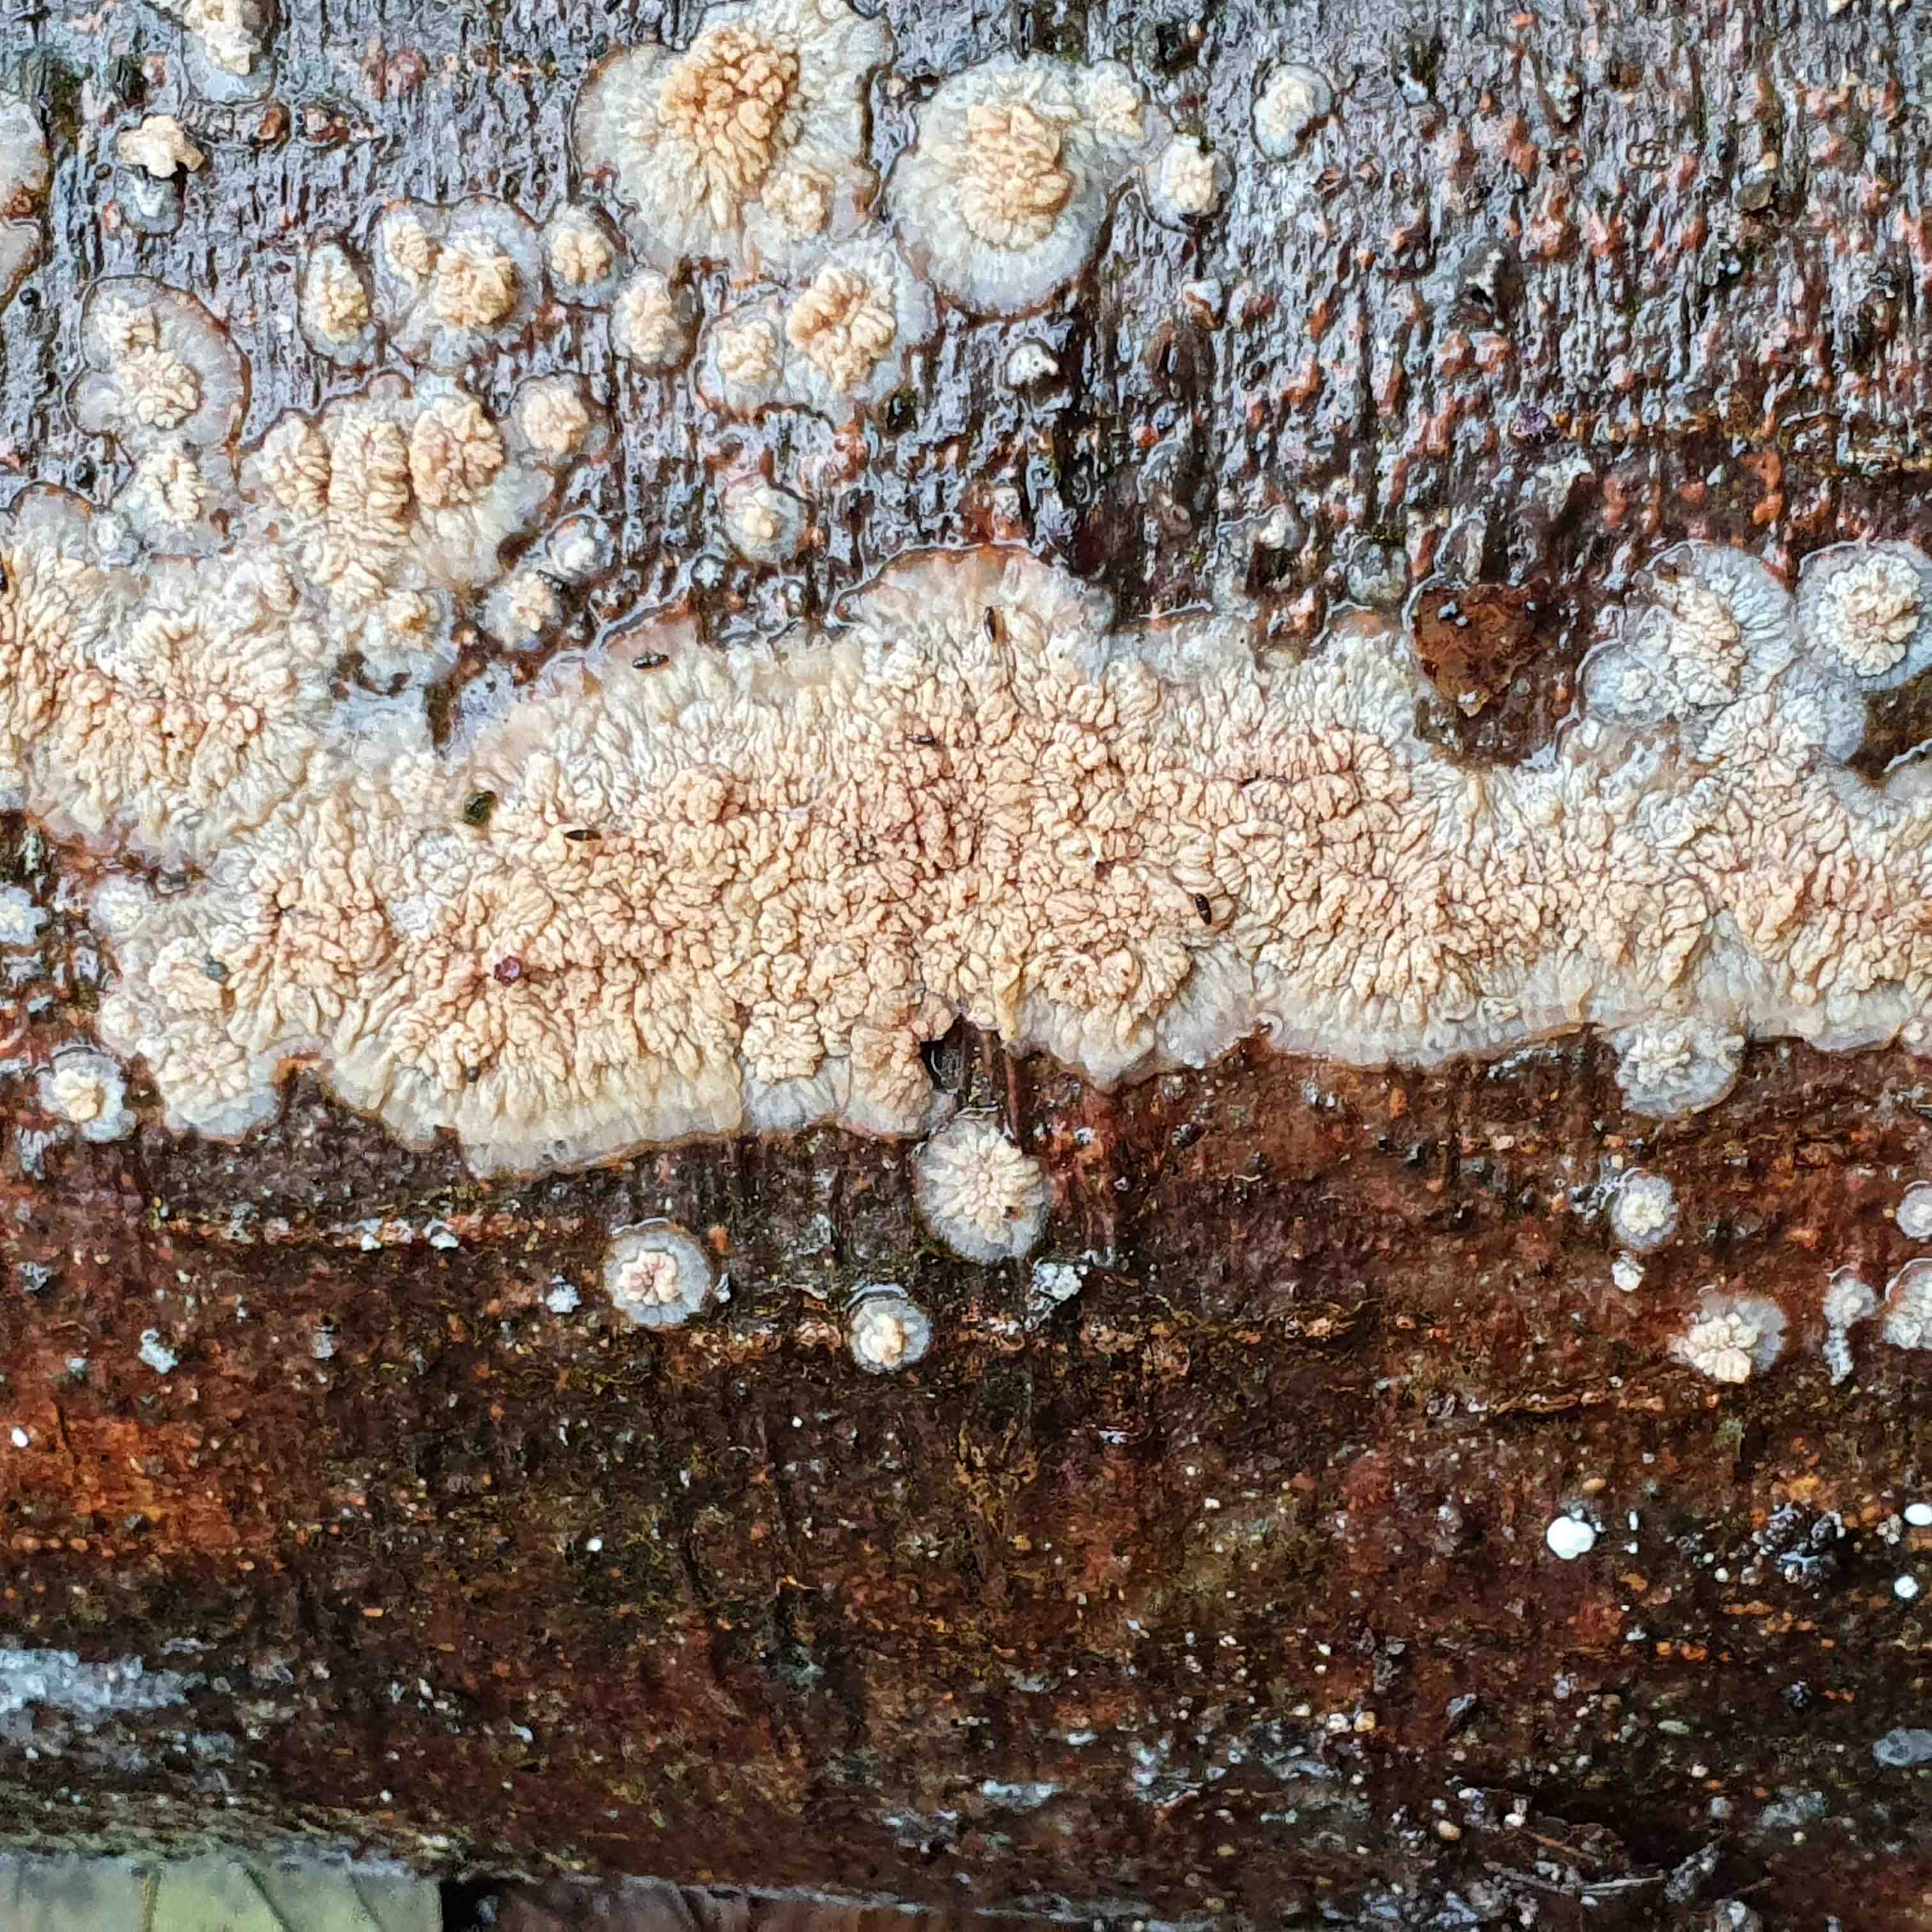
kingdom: Fungi
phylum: Basidiomycota
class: Agaricomycetes
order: Polyporales
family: Meruliaceae
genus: Phlebia
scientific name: Phlebia radiata
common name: stråle-åresvamp
